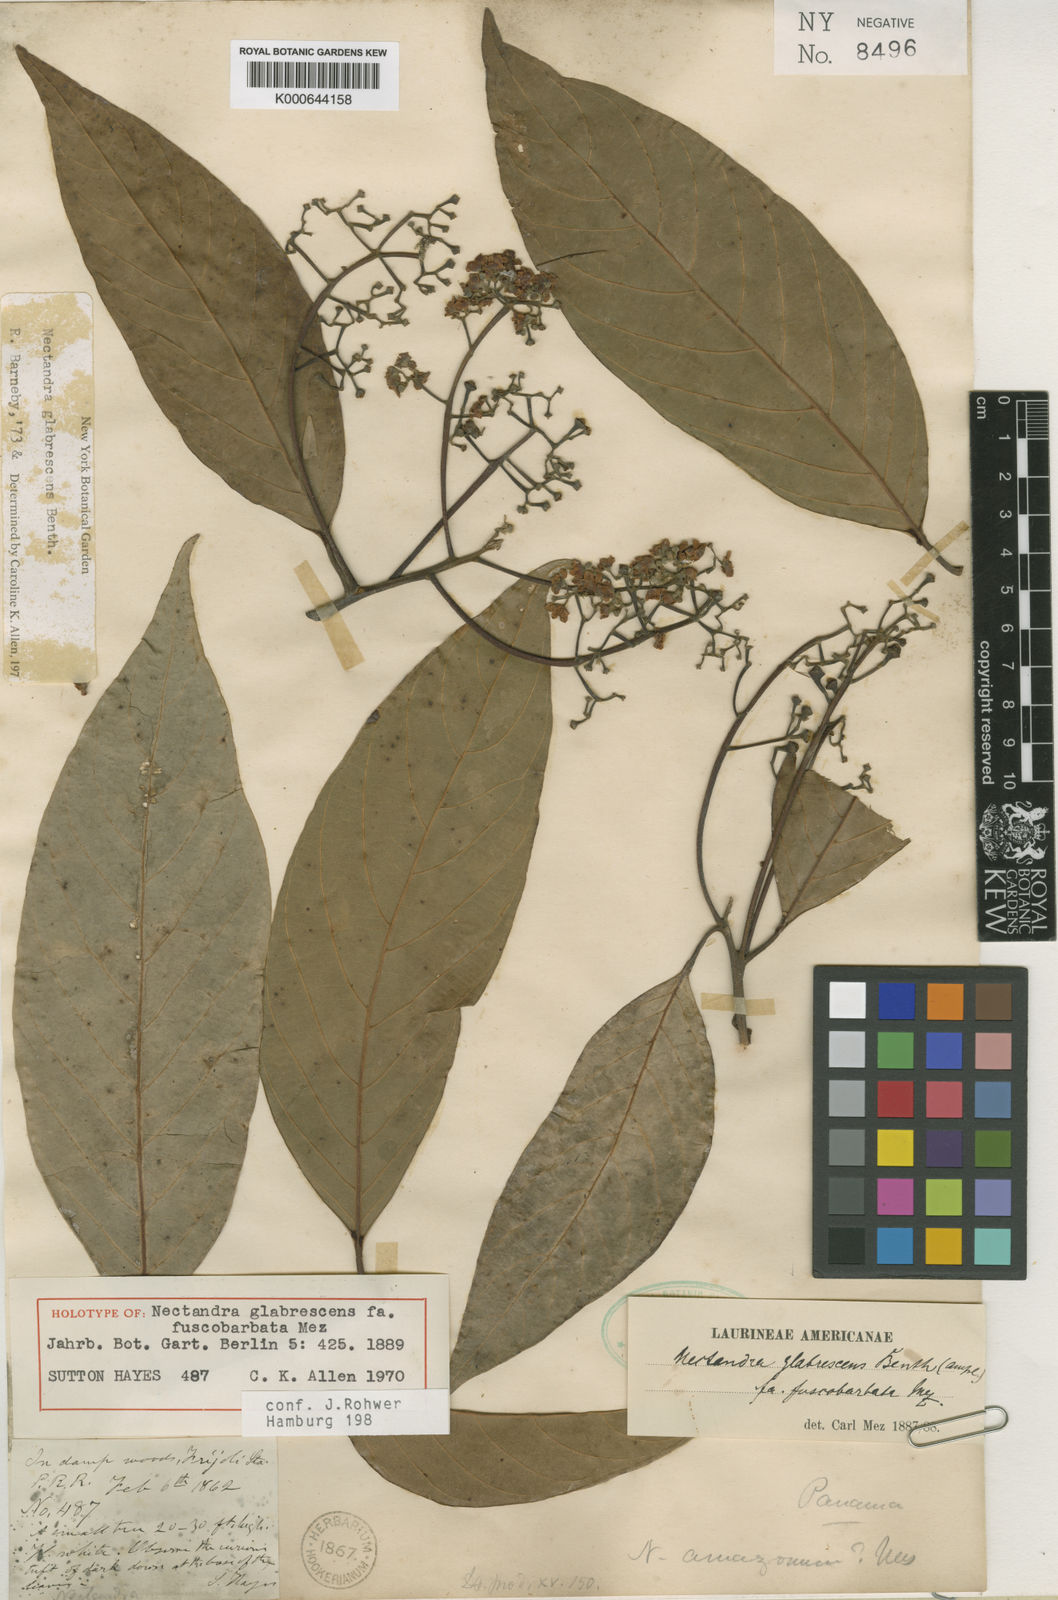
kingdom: Plantae
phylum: Tracheophyta
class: Magnoliopsida
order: Laurales
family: Lauraceae
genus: Nectandra
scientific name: Nectandra hihua
